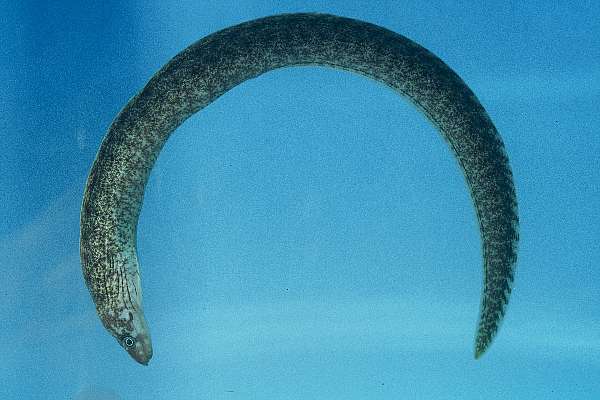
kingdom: Animalia
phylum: Chordata
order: Anguilliformes
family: Muraenidae
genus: Gymnothorax
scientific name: Gymnothorax chilospilus
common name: Lipspot moray
